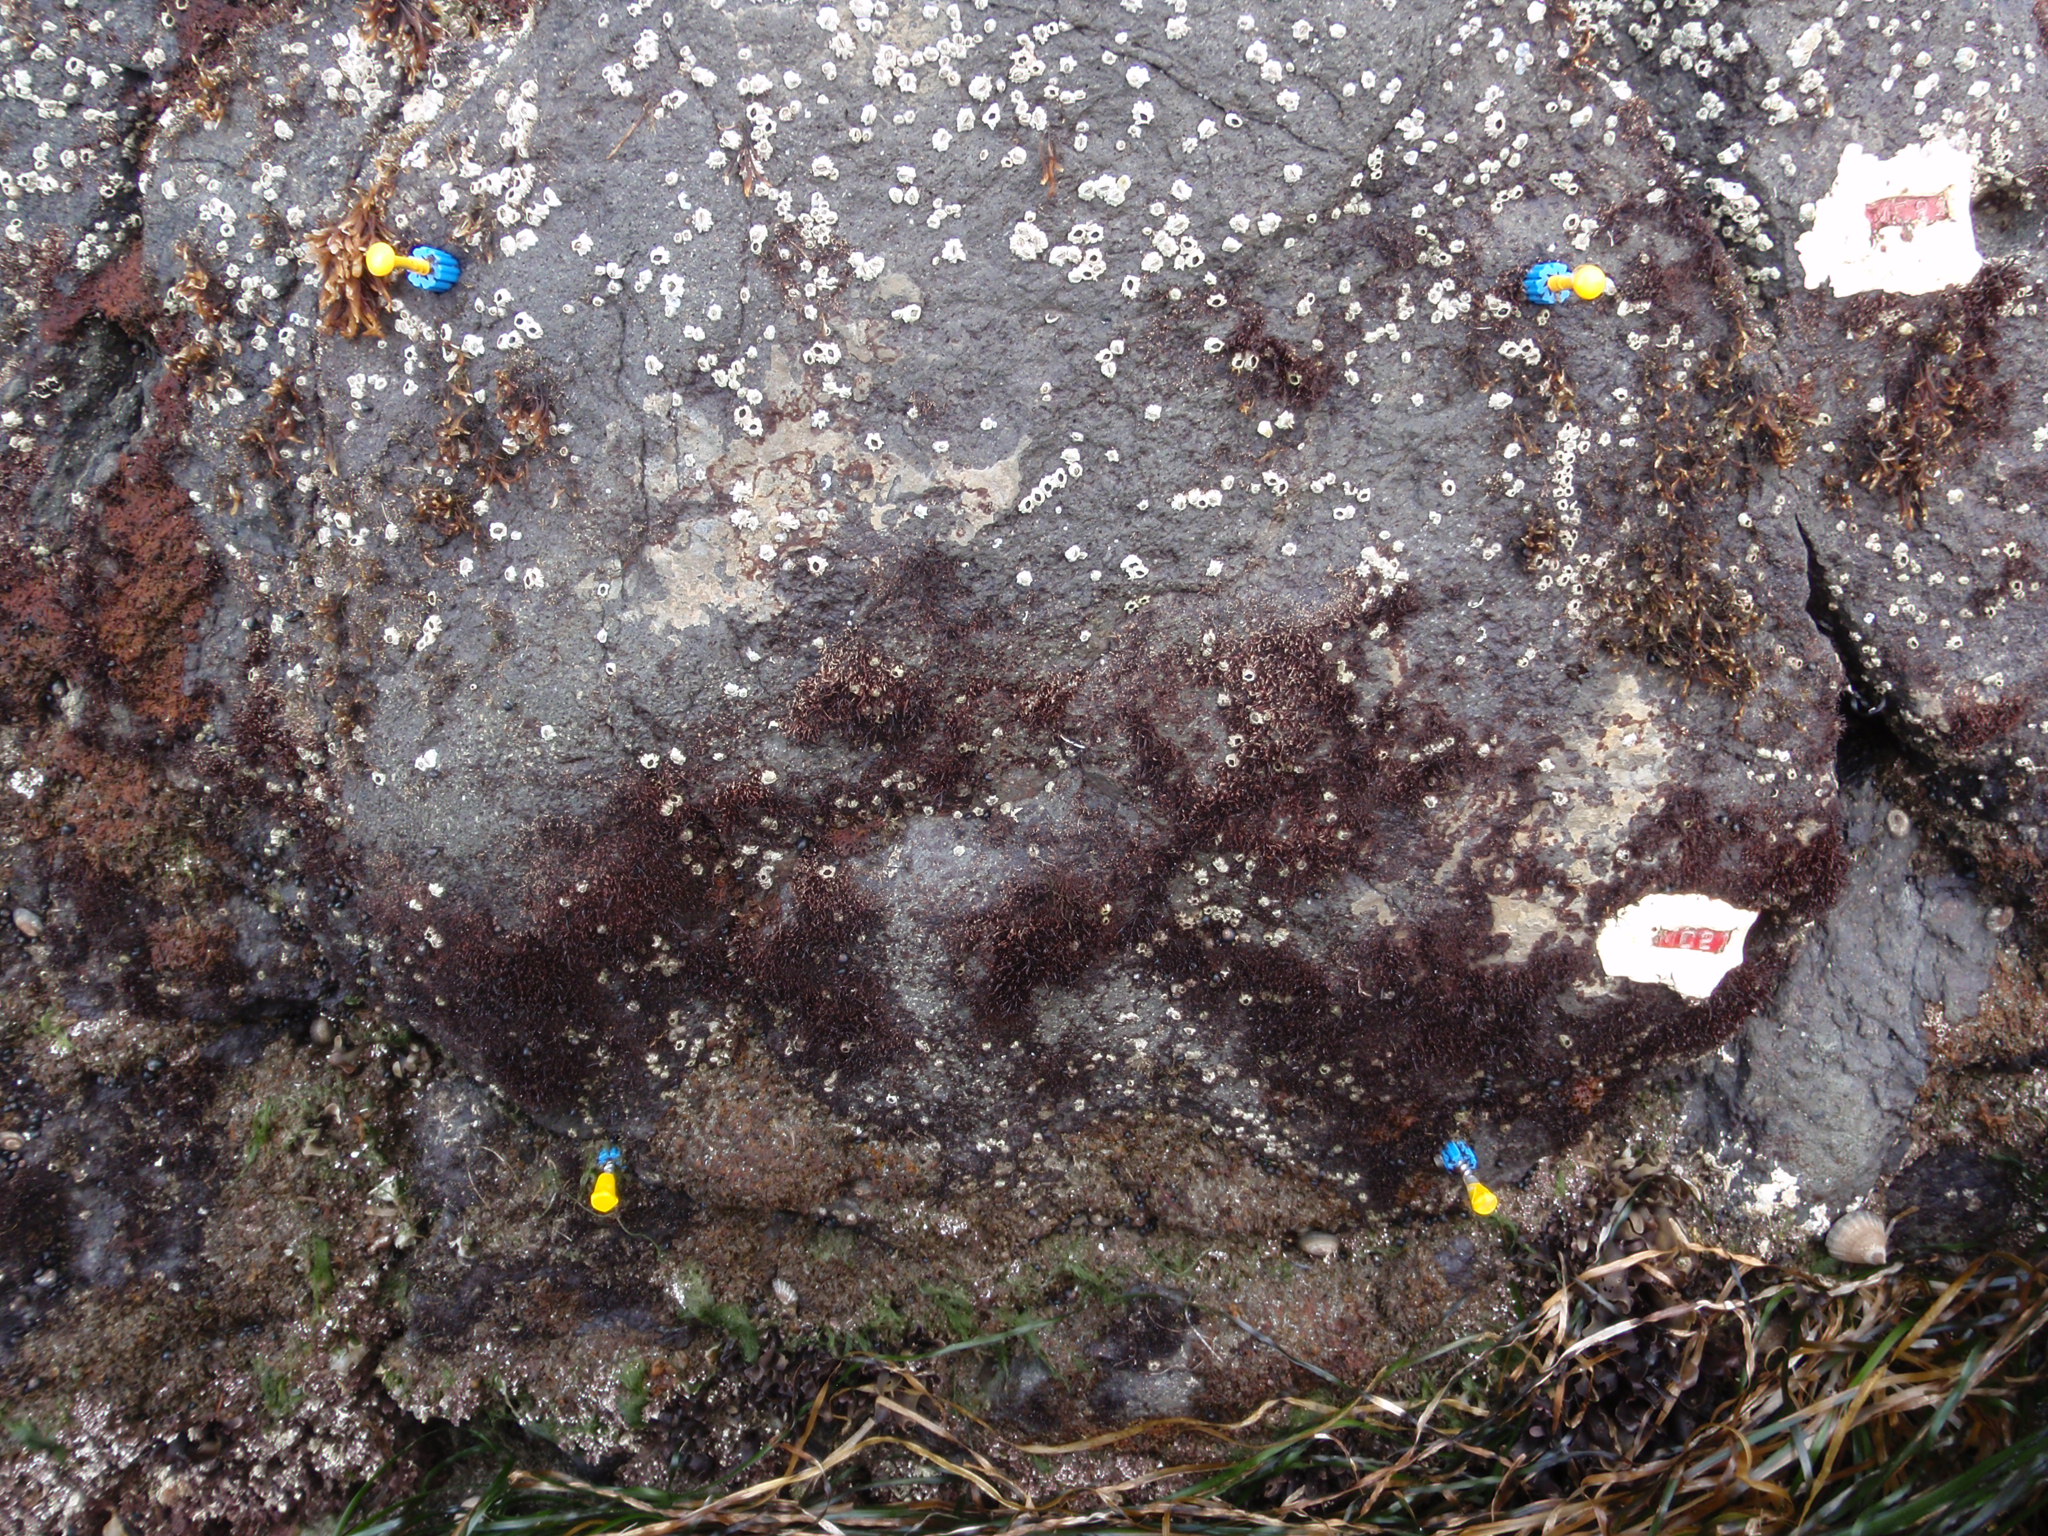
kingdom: Plantae
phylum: Rhodophyta
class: Florideophyceae
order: Gigartinales
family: Endocladiaceae
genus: Gloiopeltis
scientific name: Gloiopeltis furcata
